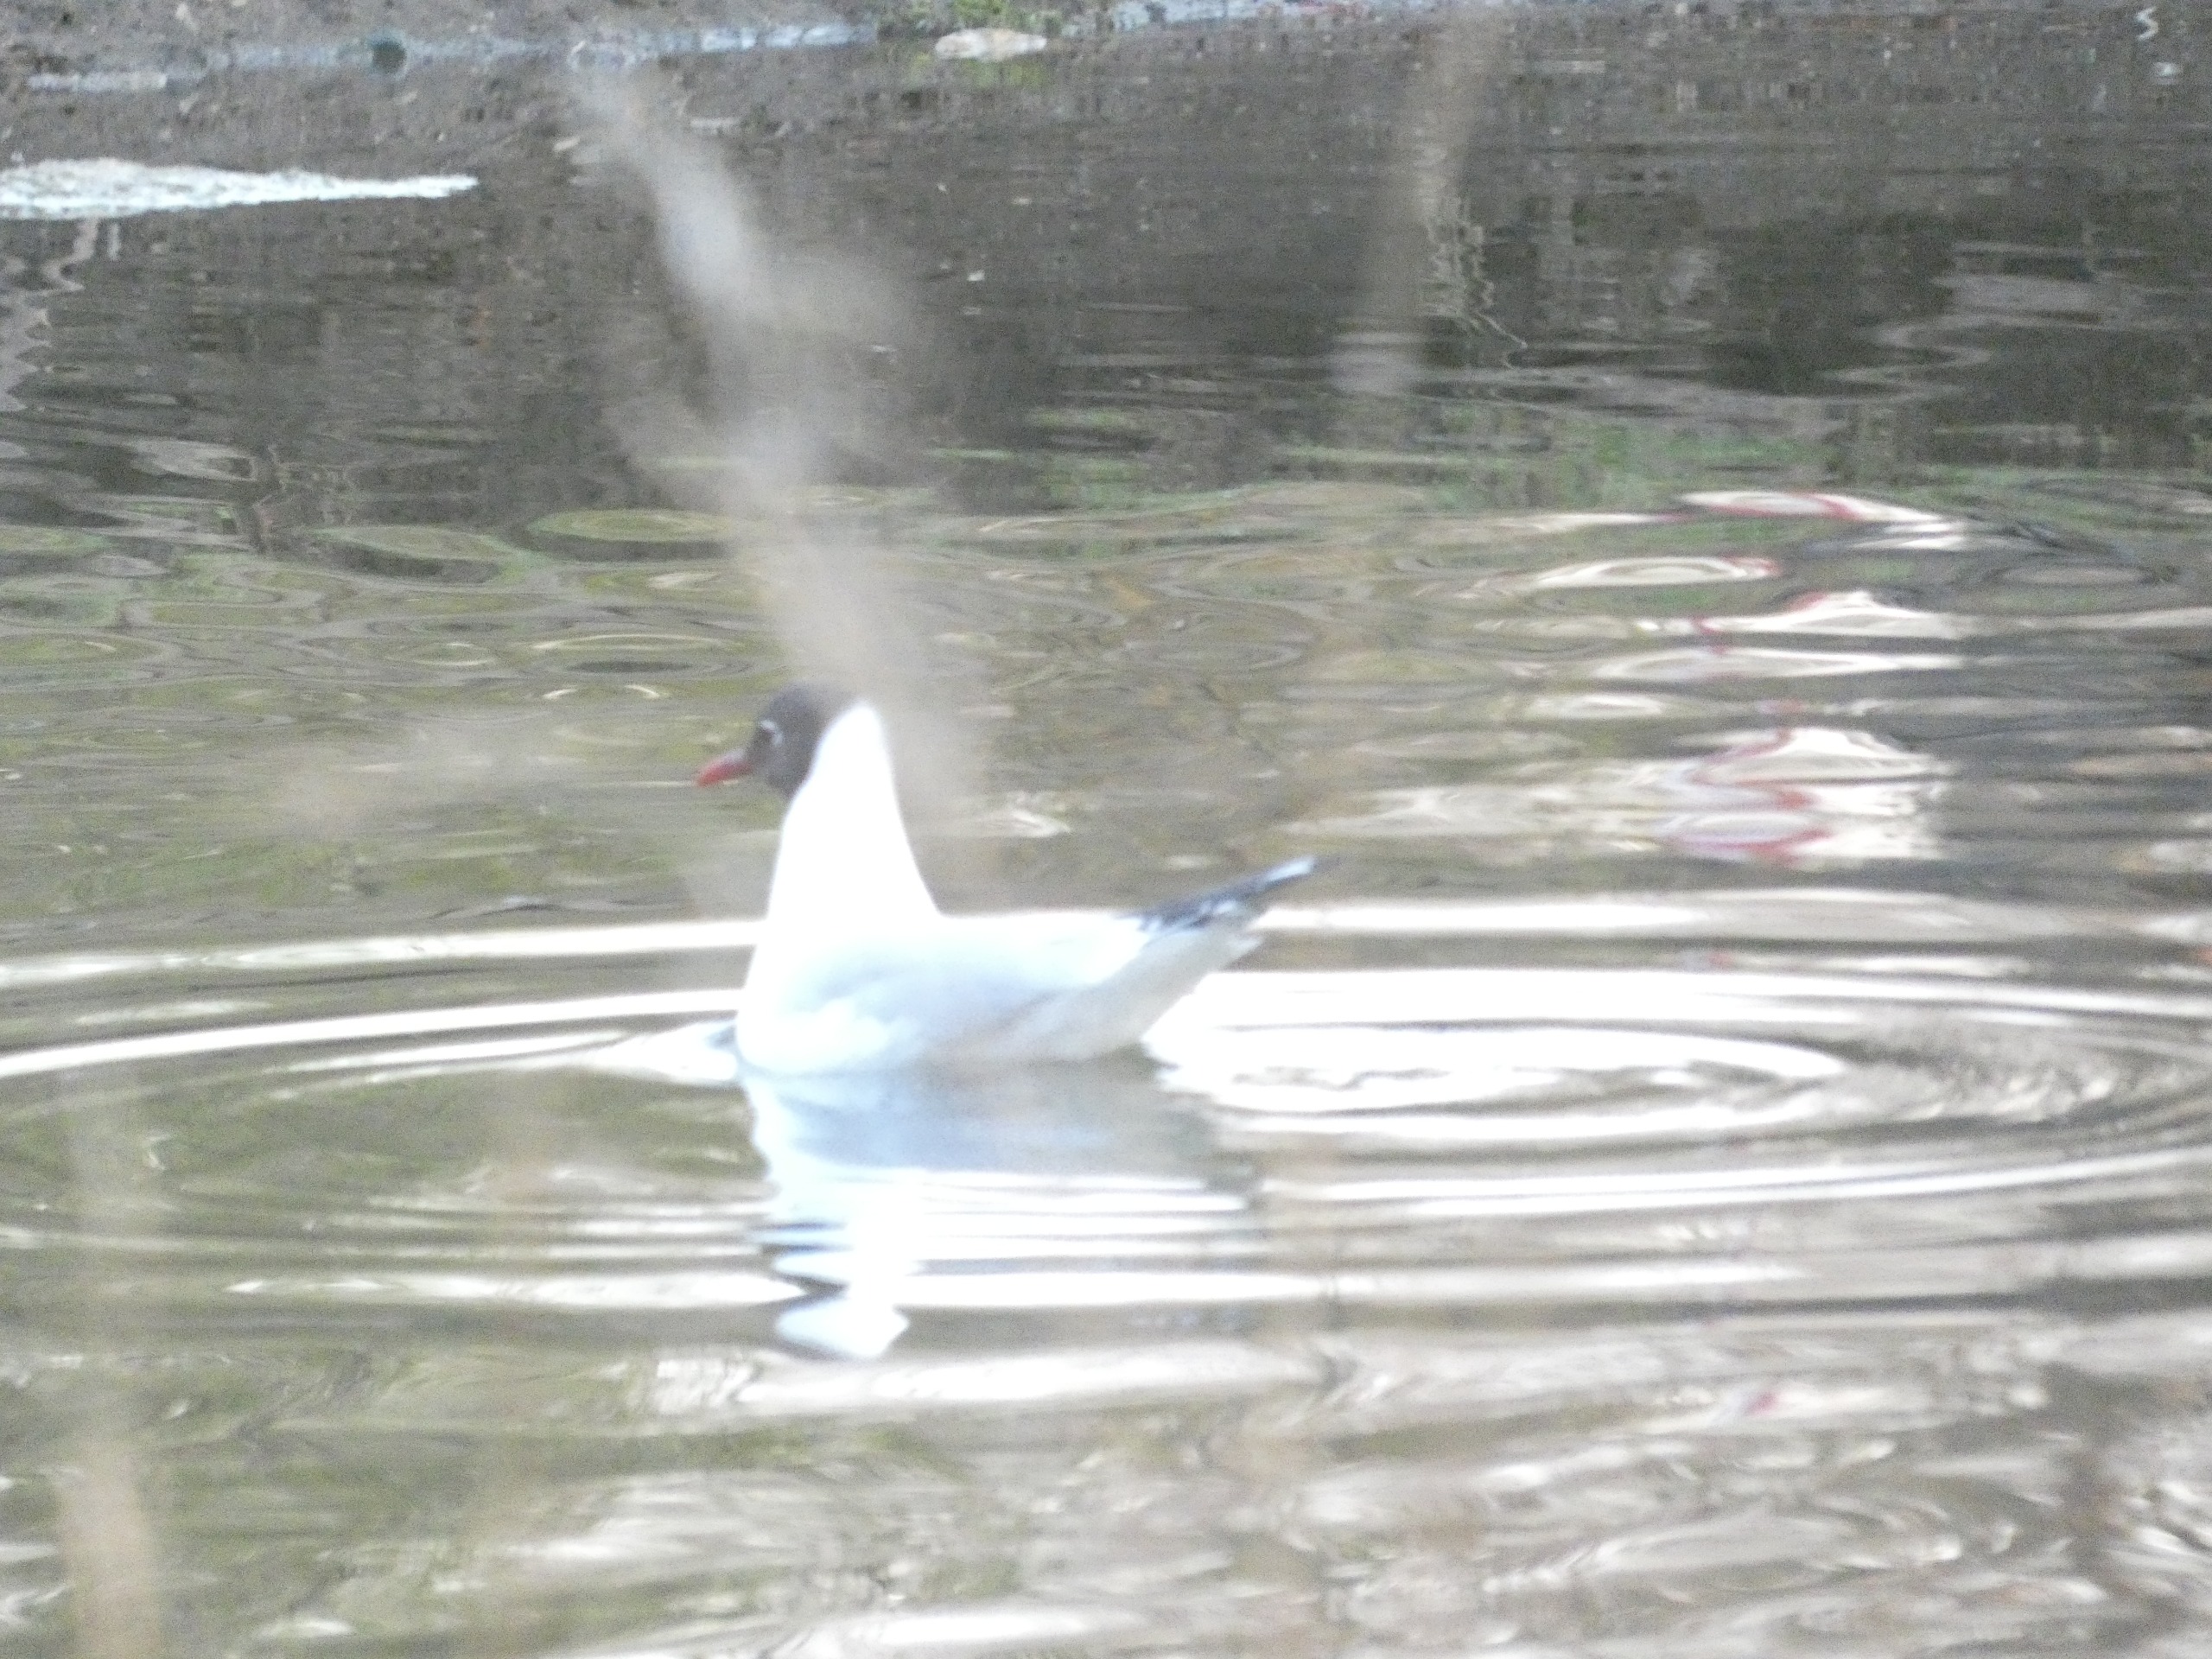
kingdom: Animalia
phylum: Chordata
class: Aves
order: Charadriiformes
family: Laridae
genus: Chroicocephalus
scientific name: Chroicocephalus ridibundus
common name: Hættemåge
